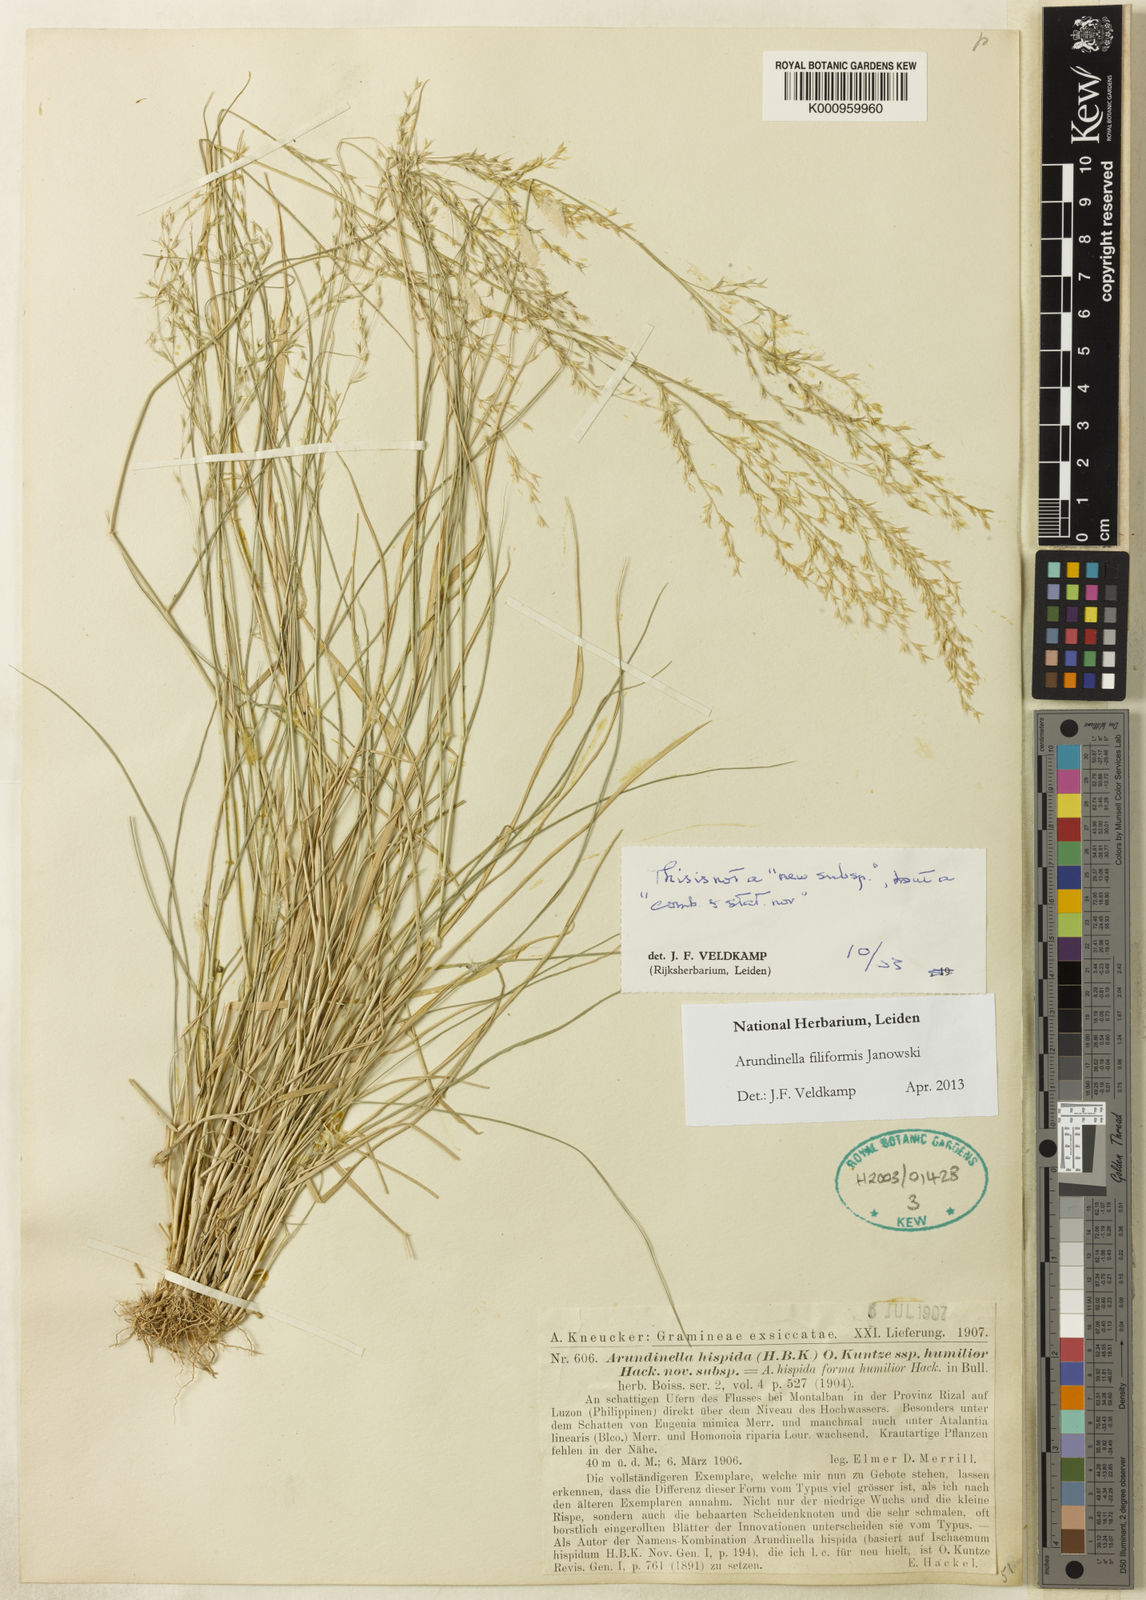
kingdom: Plantae
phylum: Tracheophyta
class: Liliopsida
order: Poales
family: Poaceae
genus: Arundinella
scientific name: Arundinella holcoides
